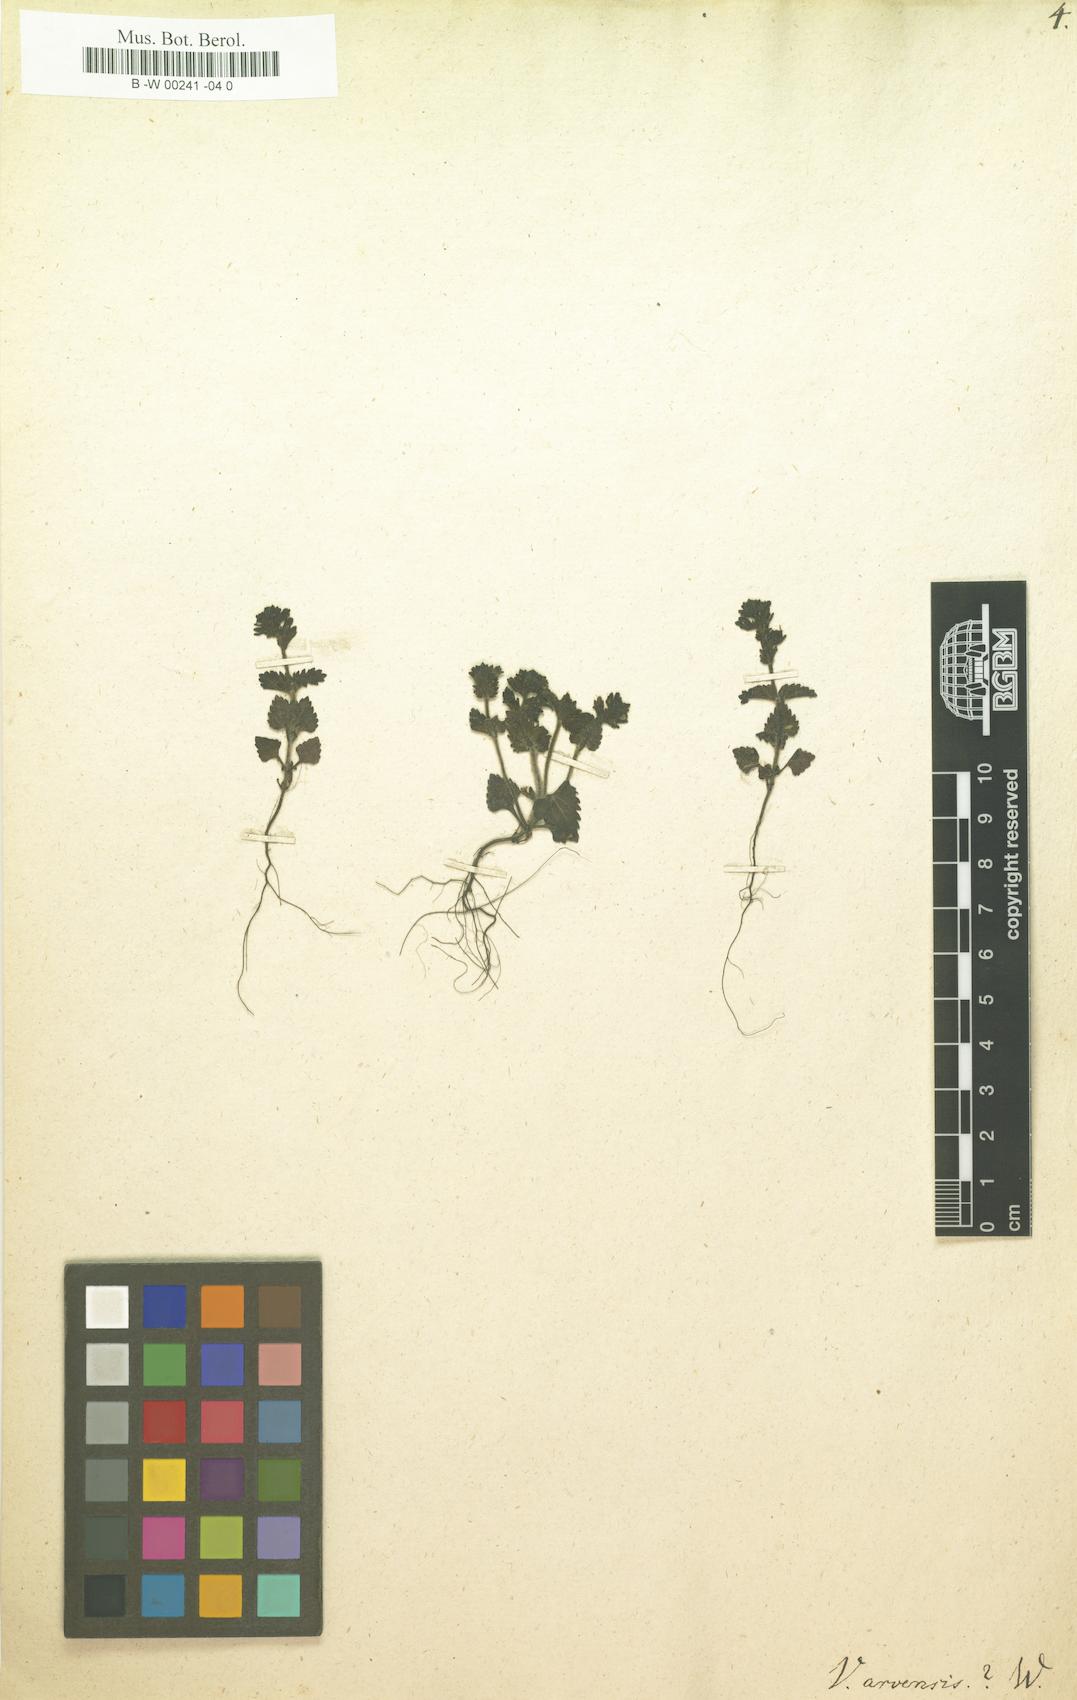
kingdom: Plantae
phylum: Tracheophyta
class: Magnoliopsida
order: Lamiales
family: Plantaginaceae
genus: Veronica
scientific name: Veronica arvensis
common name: Corn speedwell
